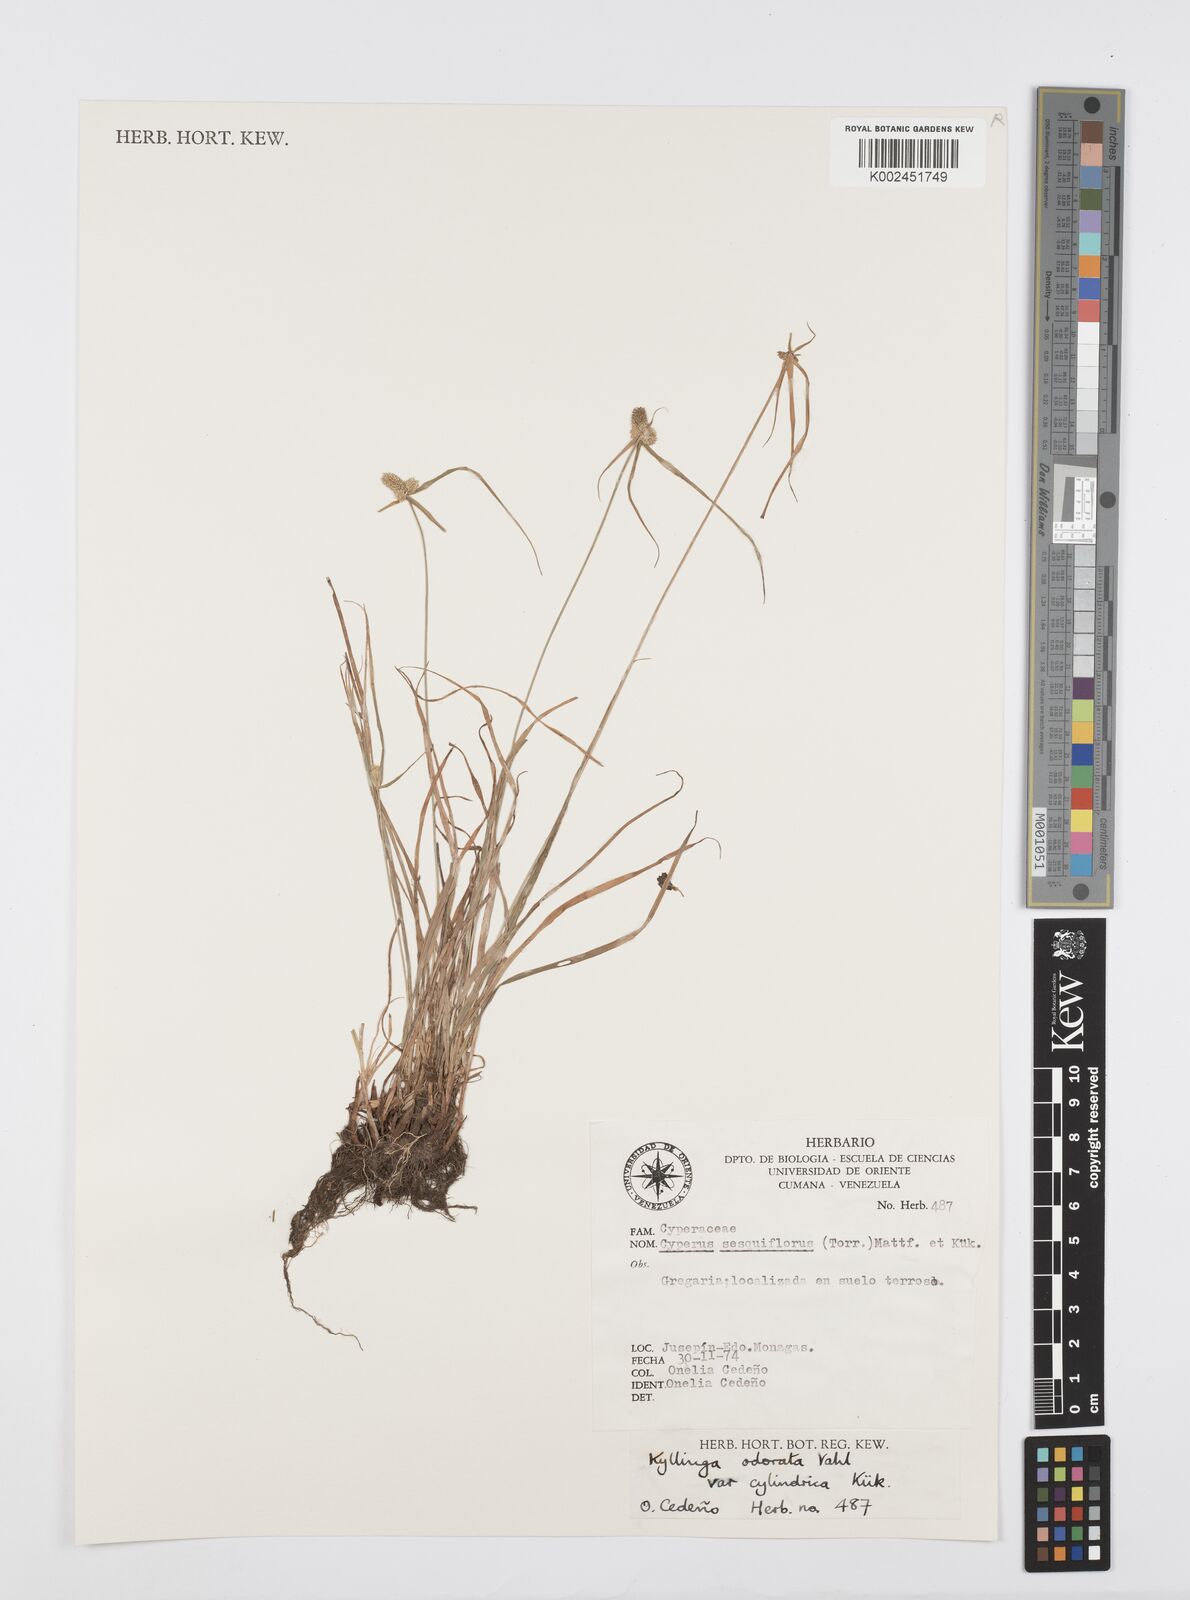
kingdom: Plantae
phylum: Tracheophyta
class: Liliopsida
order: Poales
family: Cyperaceae
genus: Cyperus
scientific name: Cyperus
